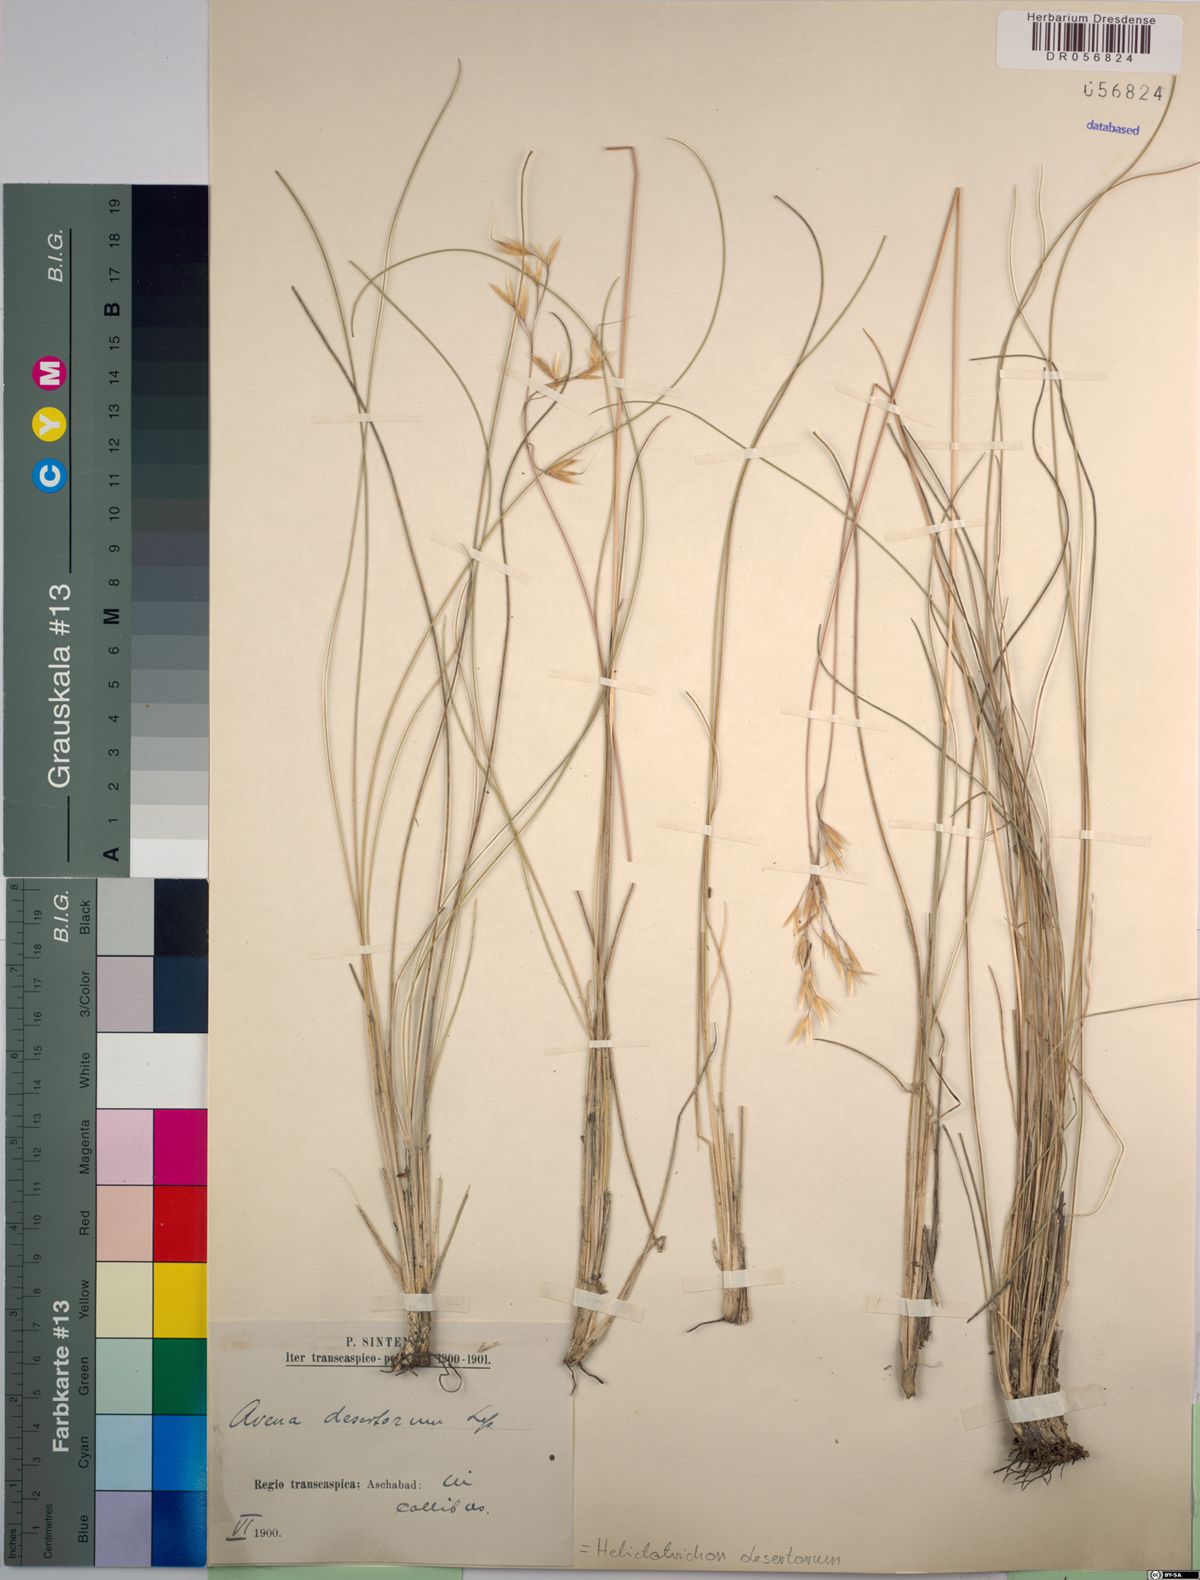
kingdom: Plantae
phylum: Tracheophyta
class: Liliopsida
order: Poales
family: Poaceae
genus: Helictotrichon
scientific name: Helictotrichon desertorum
